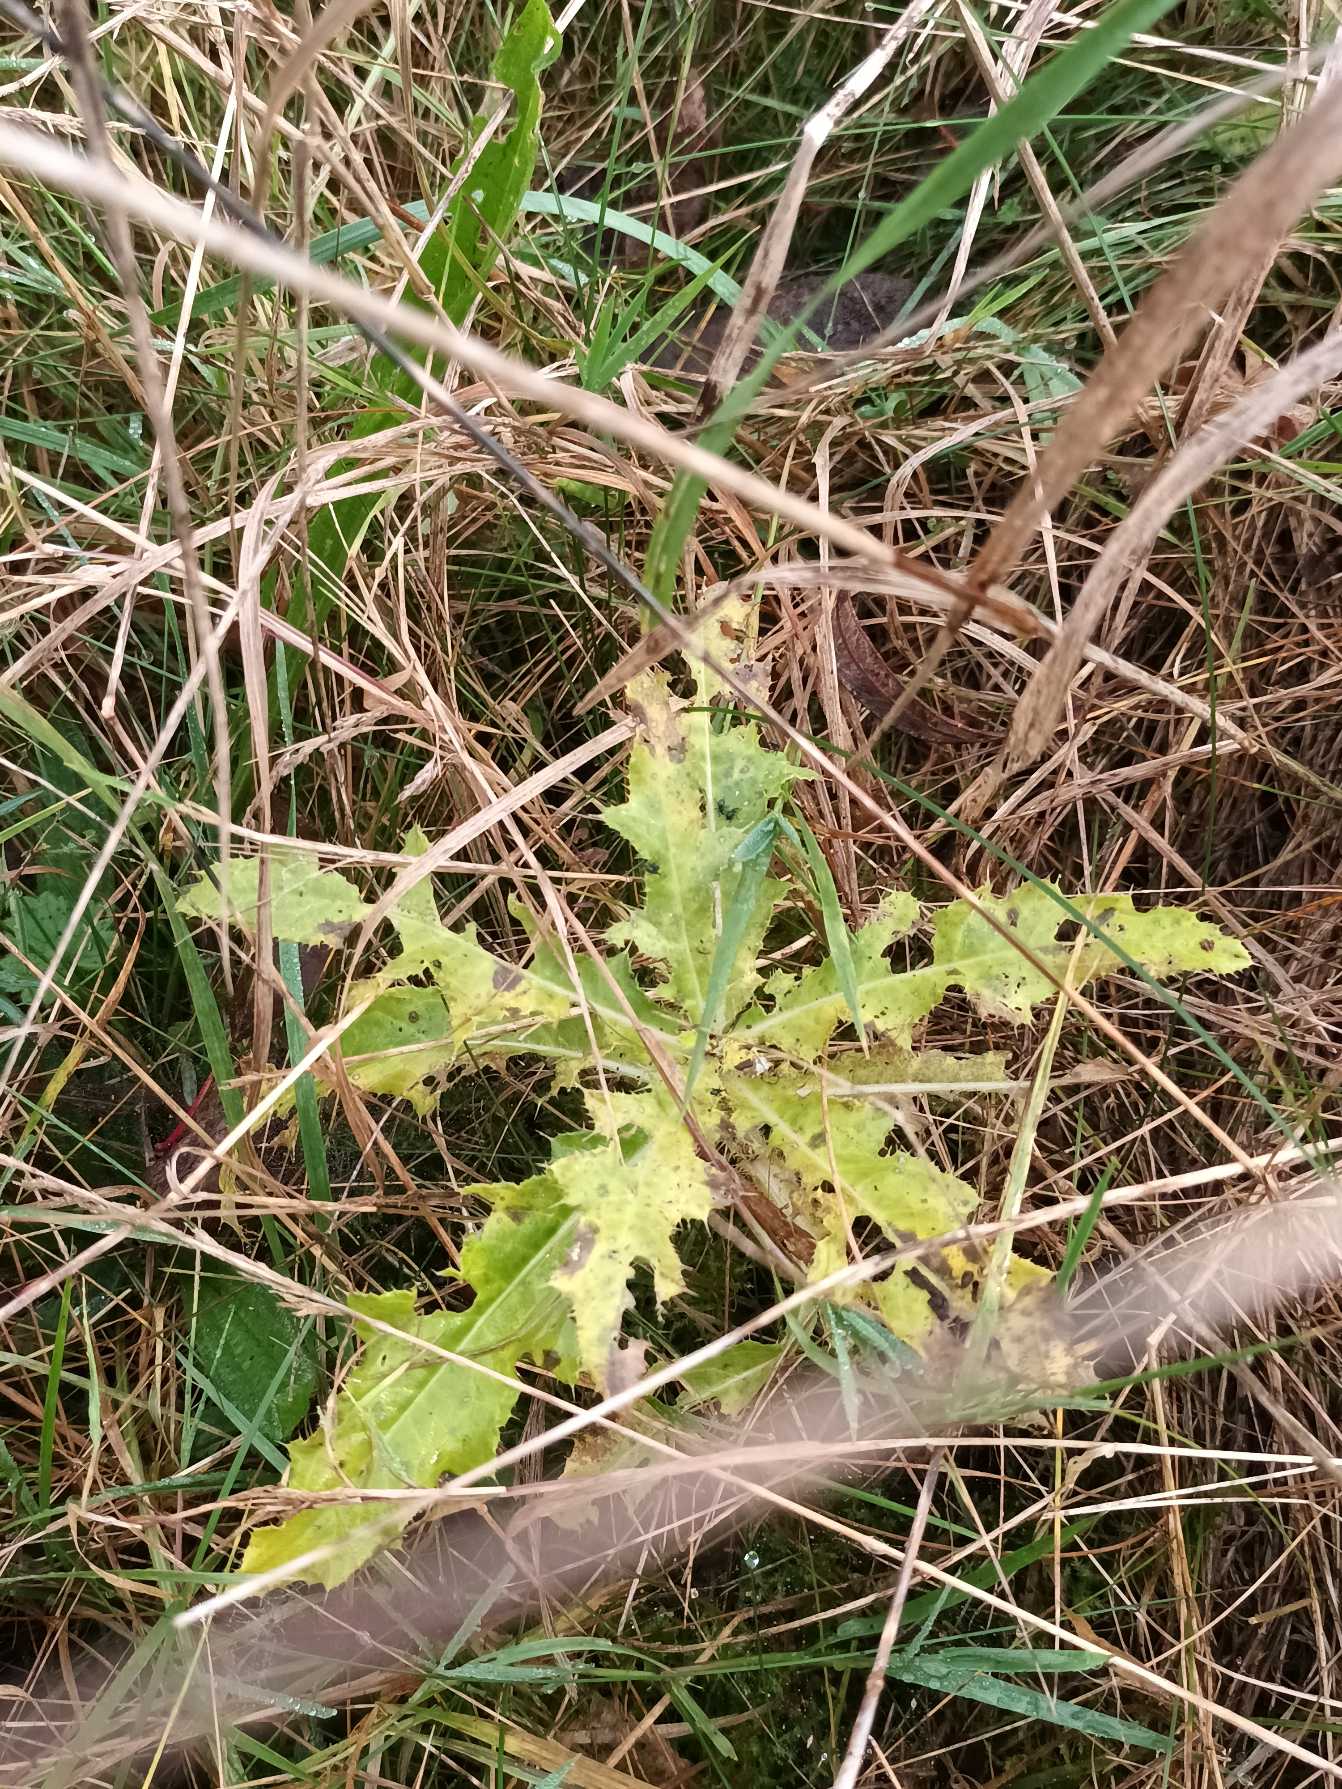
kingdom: Plantae
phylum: Tracheophyta
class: Magnoliopsida
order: Asterales
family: Asteraceae
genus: Cirsium
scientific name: Cirsium arvense
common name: Ager-tidsel
